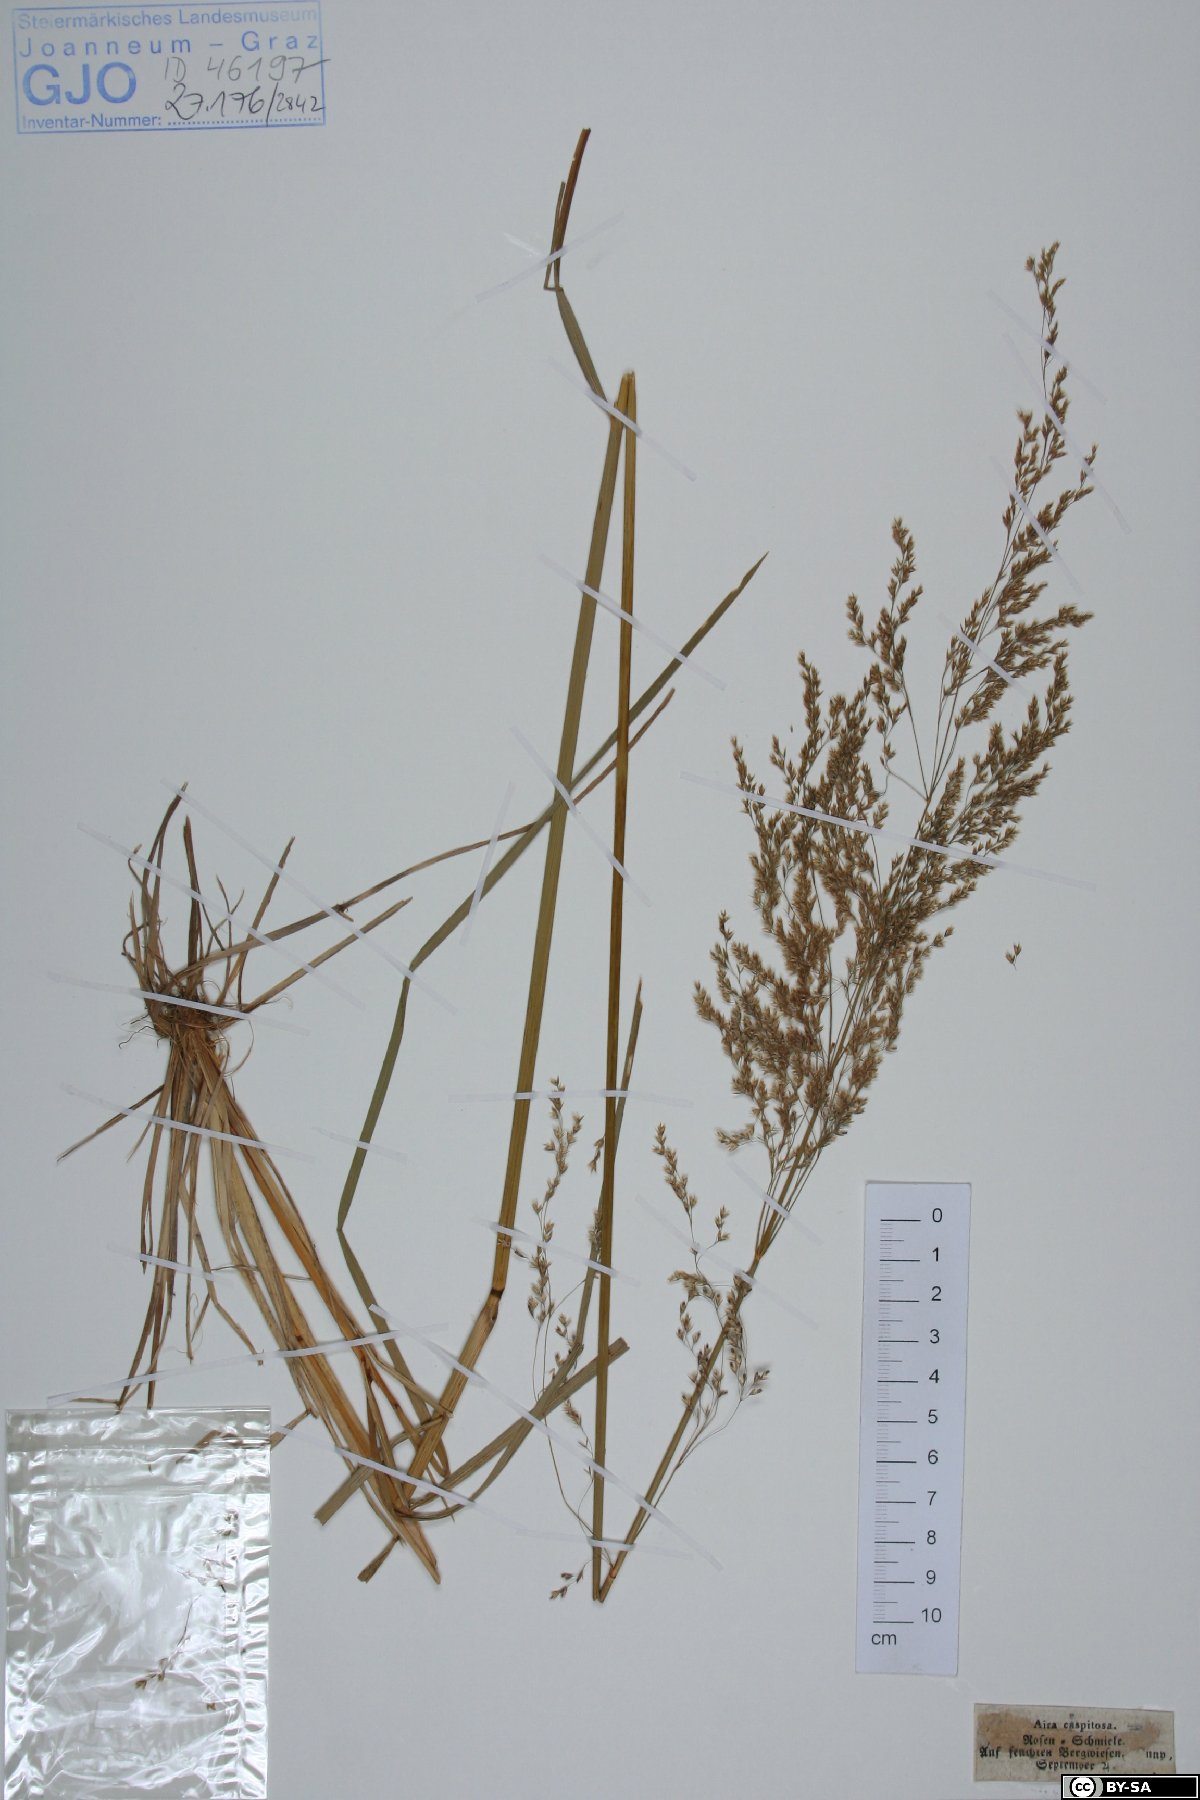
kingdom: Plantae
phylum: Tracheophyta
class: Liliopsida
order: Poales
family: Poaceae
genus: Deschampsia
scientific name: Deschampsia cespitosa
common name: Tufted hair-grass
